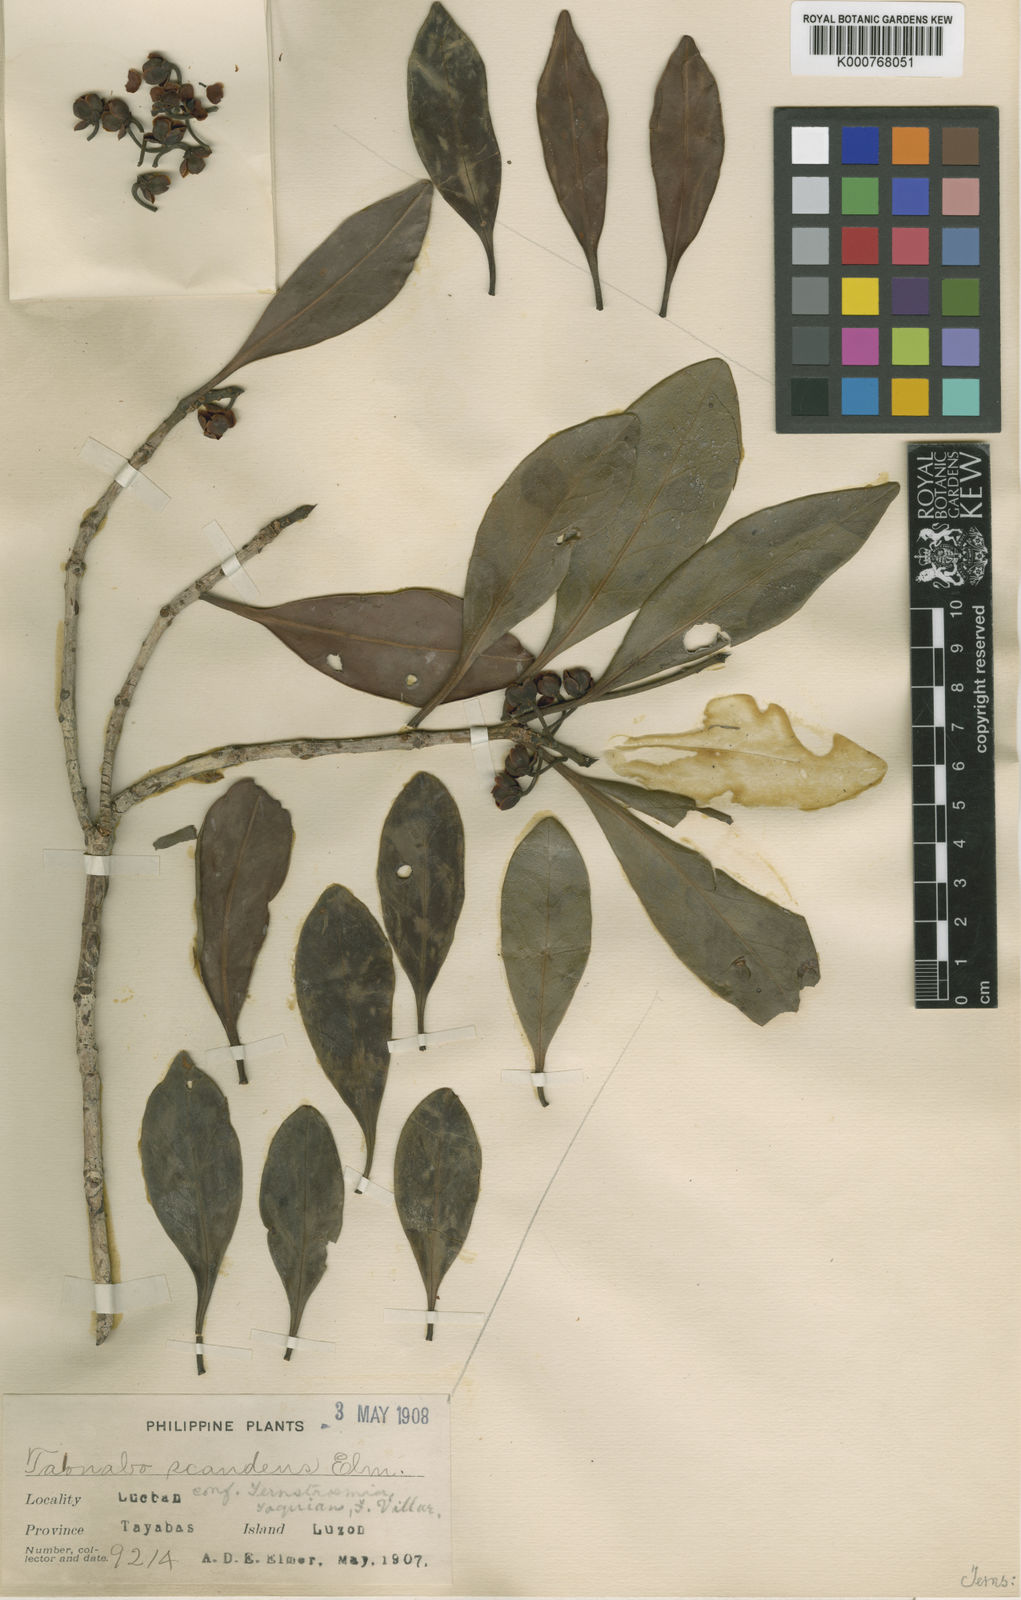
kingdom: Plantae
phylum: Tracheophyta
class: Magnoliopsida
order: Ericales
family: Pentaphylacaceae
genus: Ternstroemia
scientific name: Ternstroemia
